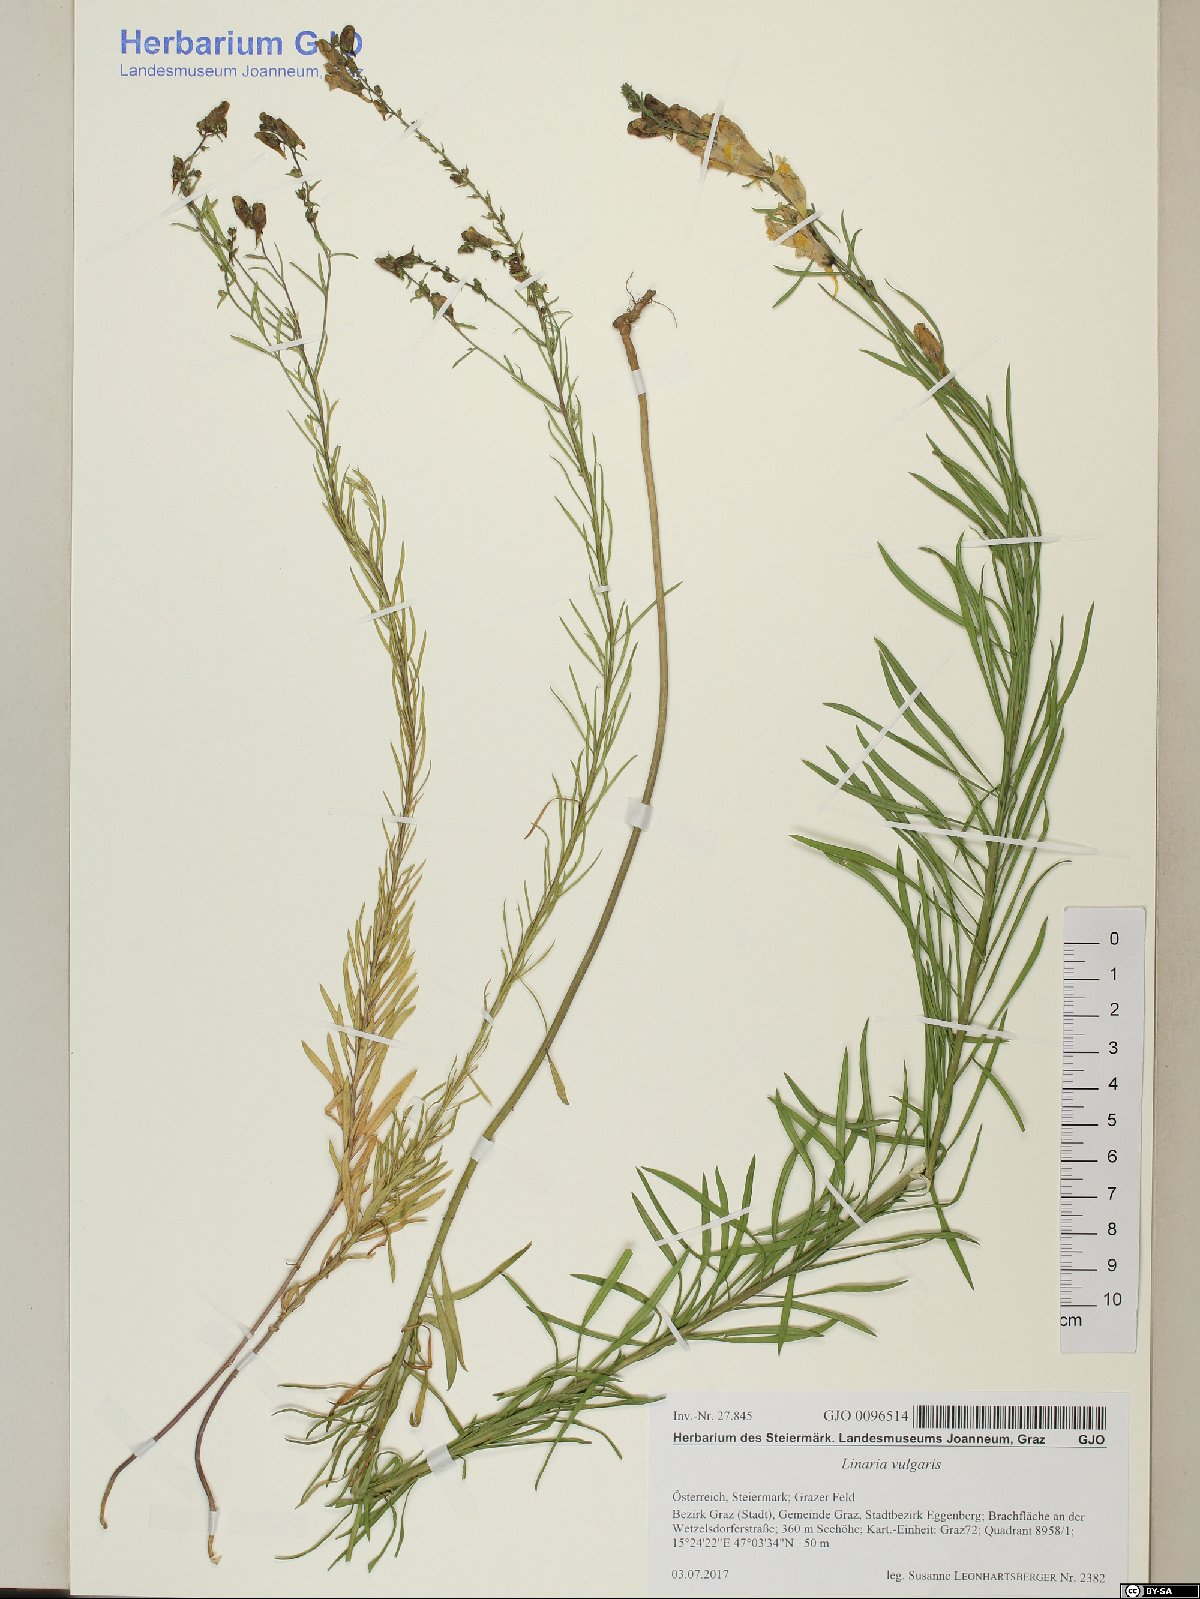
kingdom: Plantae
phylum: Tracheophyta
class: Magnoliopsida
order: Lamiales
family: Plantaginaceae
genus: Linaria
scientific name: Linaria vulgaris
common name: Butter and eggs
